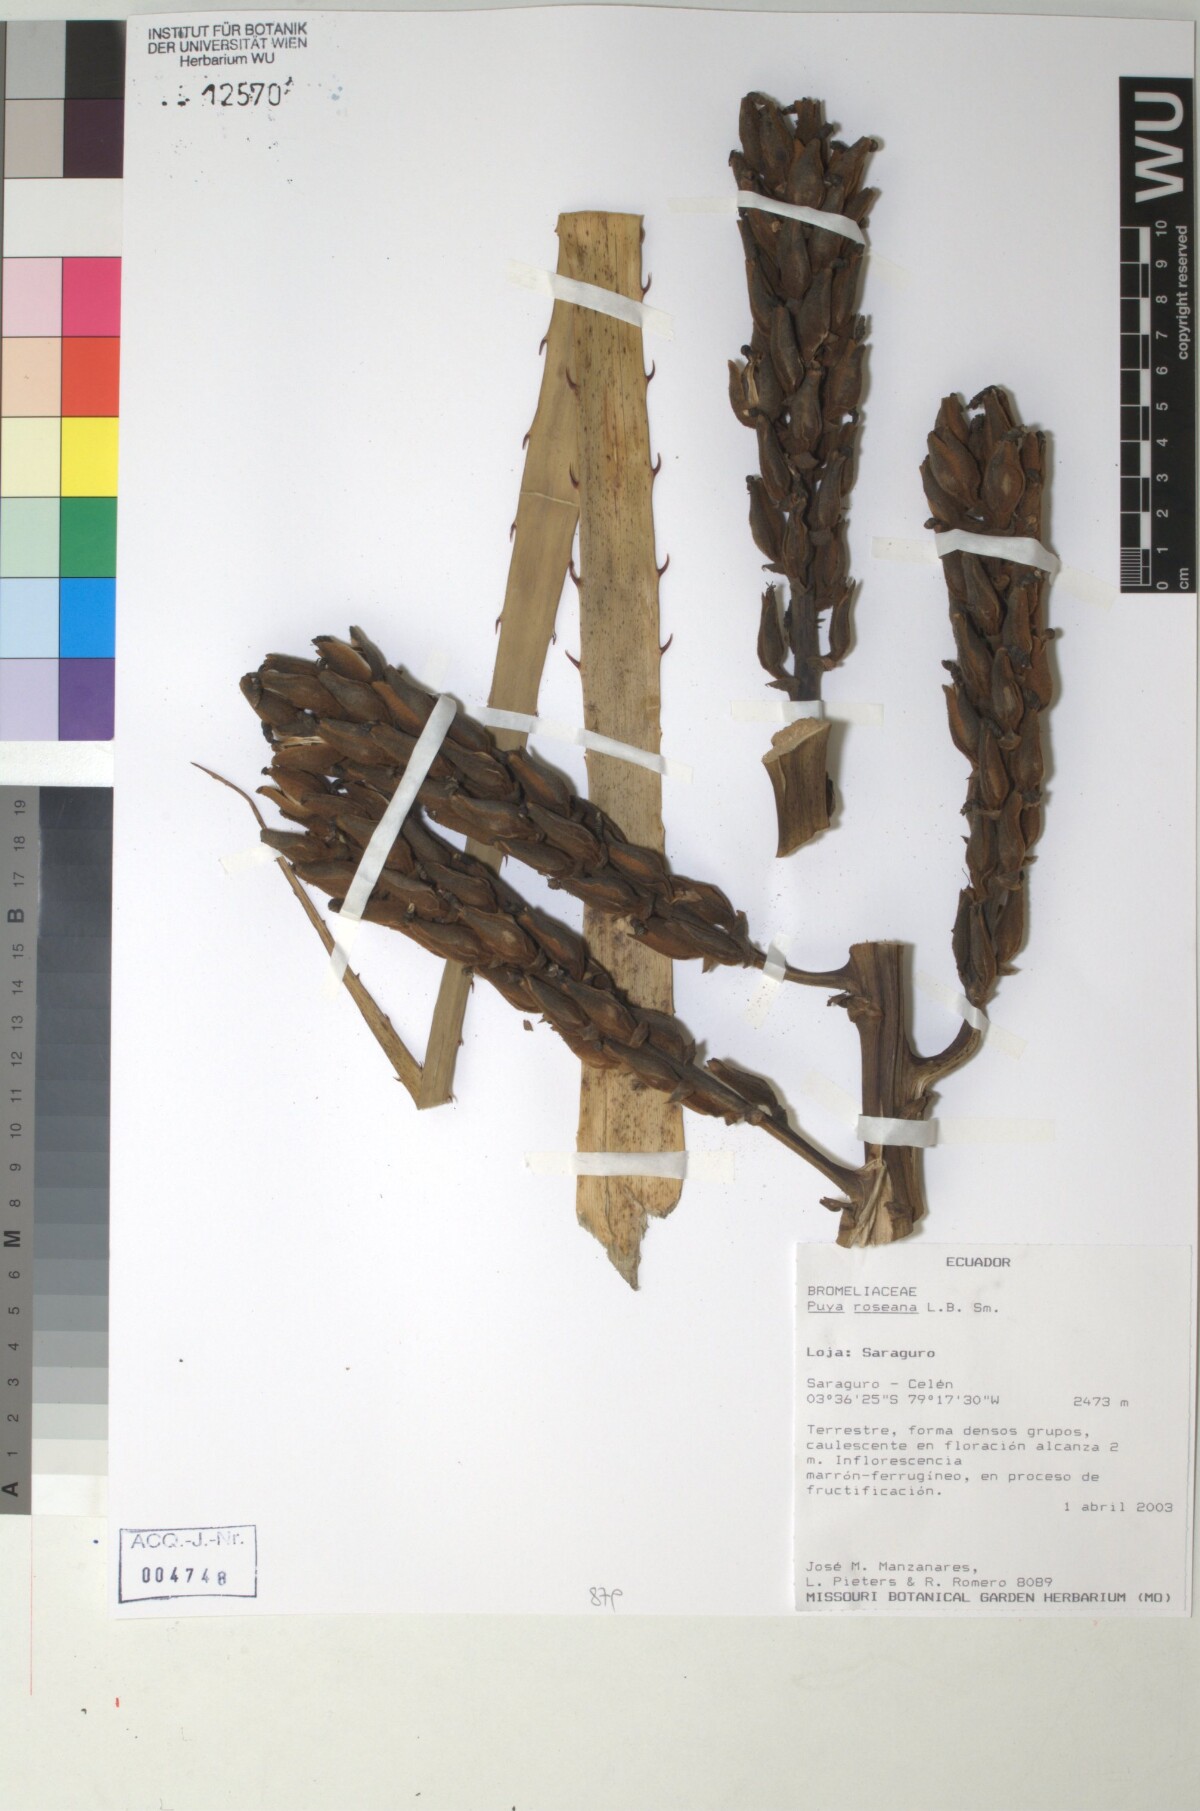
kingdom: Plantae
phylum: Tracheophyta
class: Liliopsida
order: Poales
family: Bromeliaceae
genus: Puya
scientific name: Puya roseana
